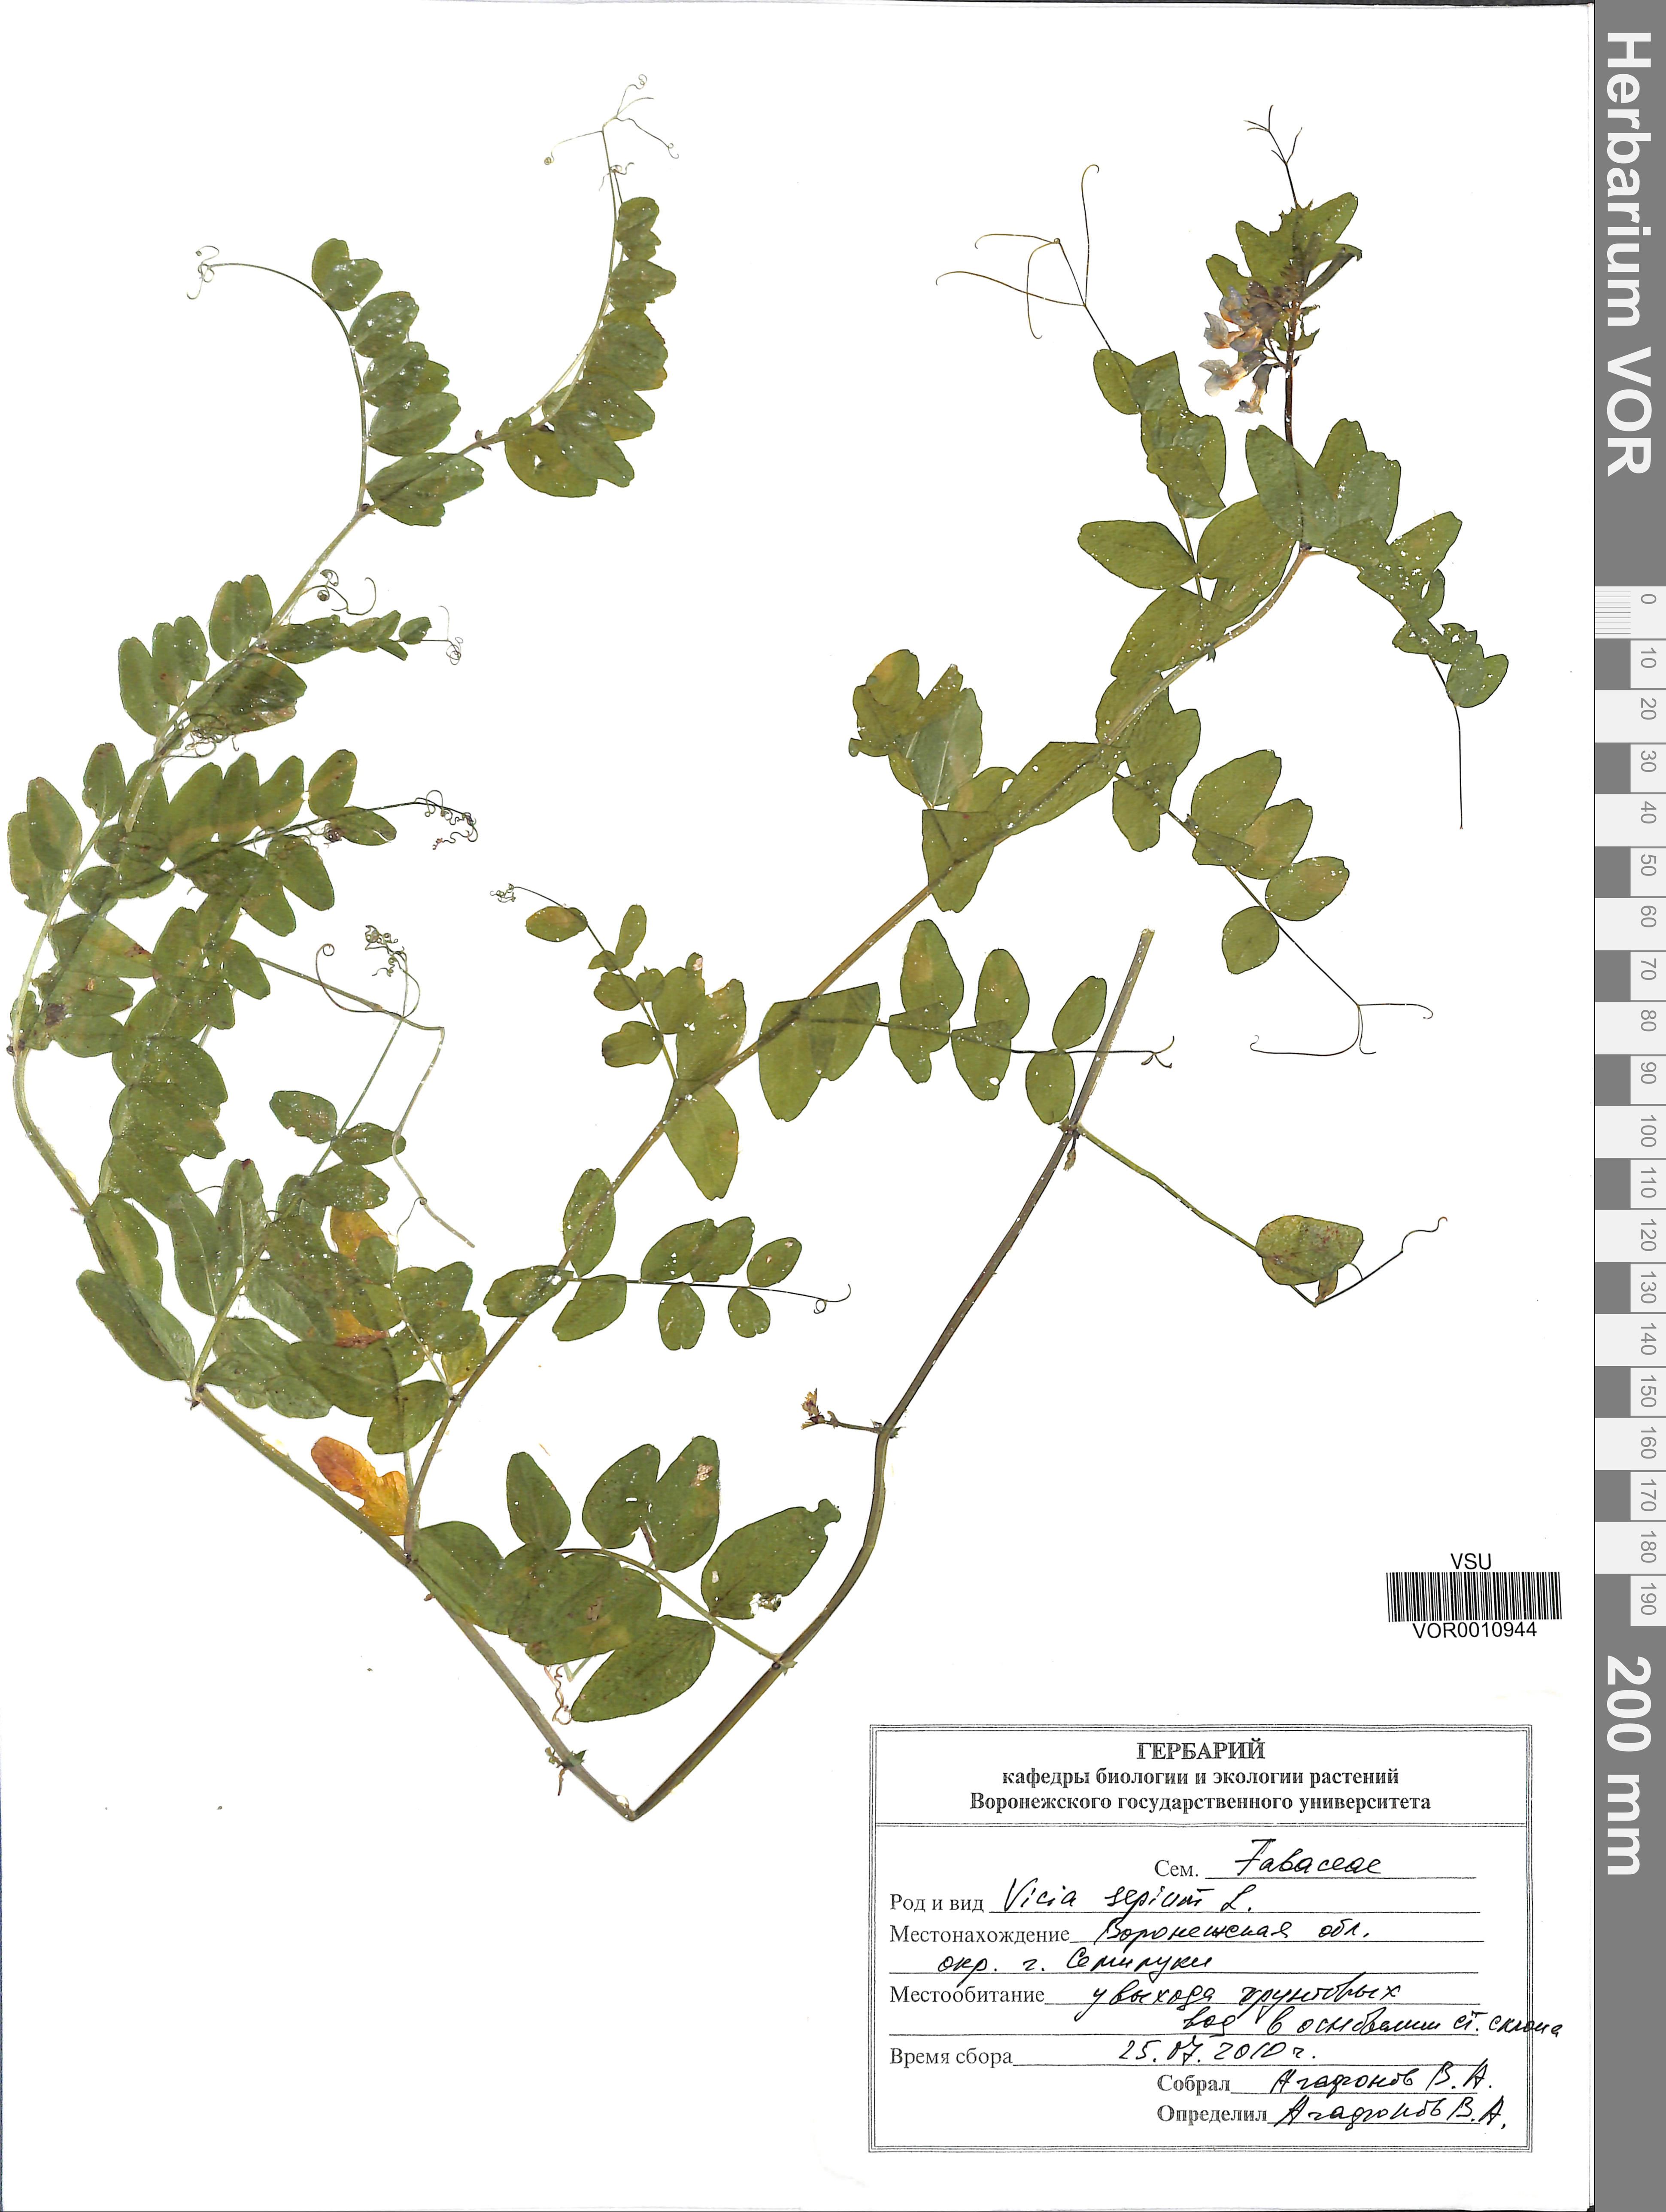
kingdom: Plantae
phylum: Tracheophyta
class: Magnoliopsida
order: Fabales
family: Fabaceae
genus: Vicia
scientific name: Vicia sepium
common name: Bush vetch
